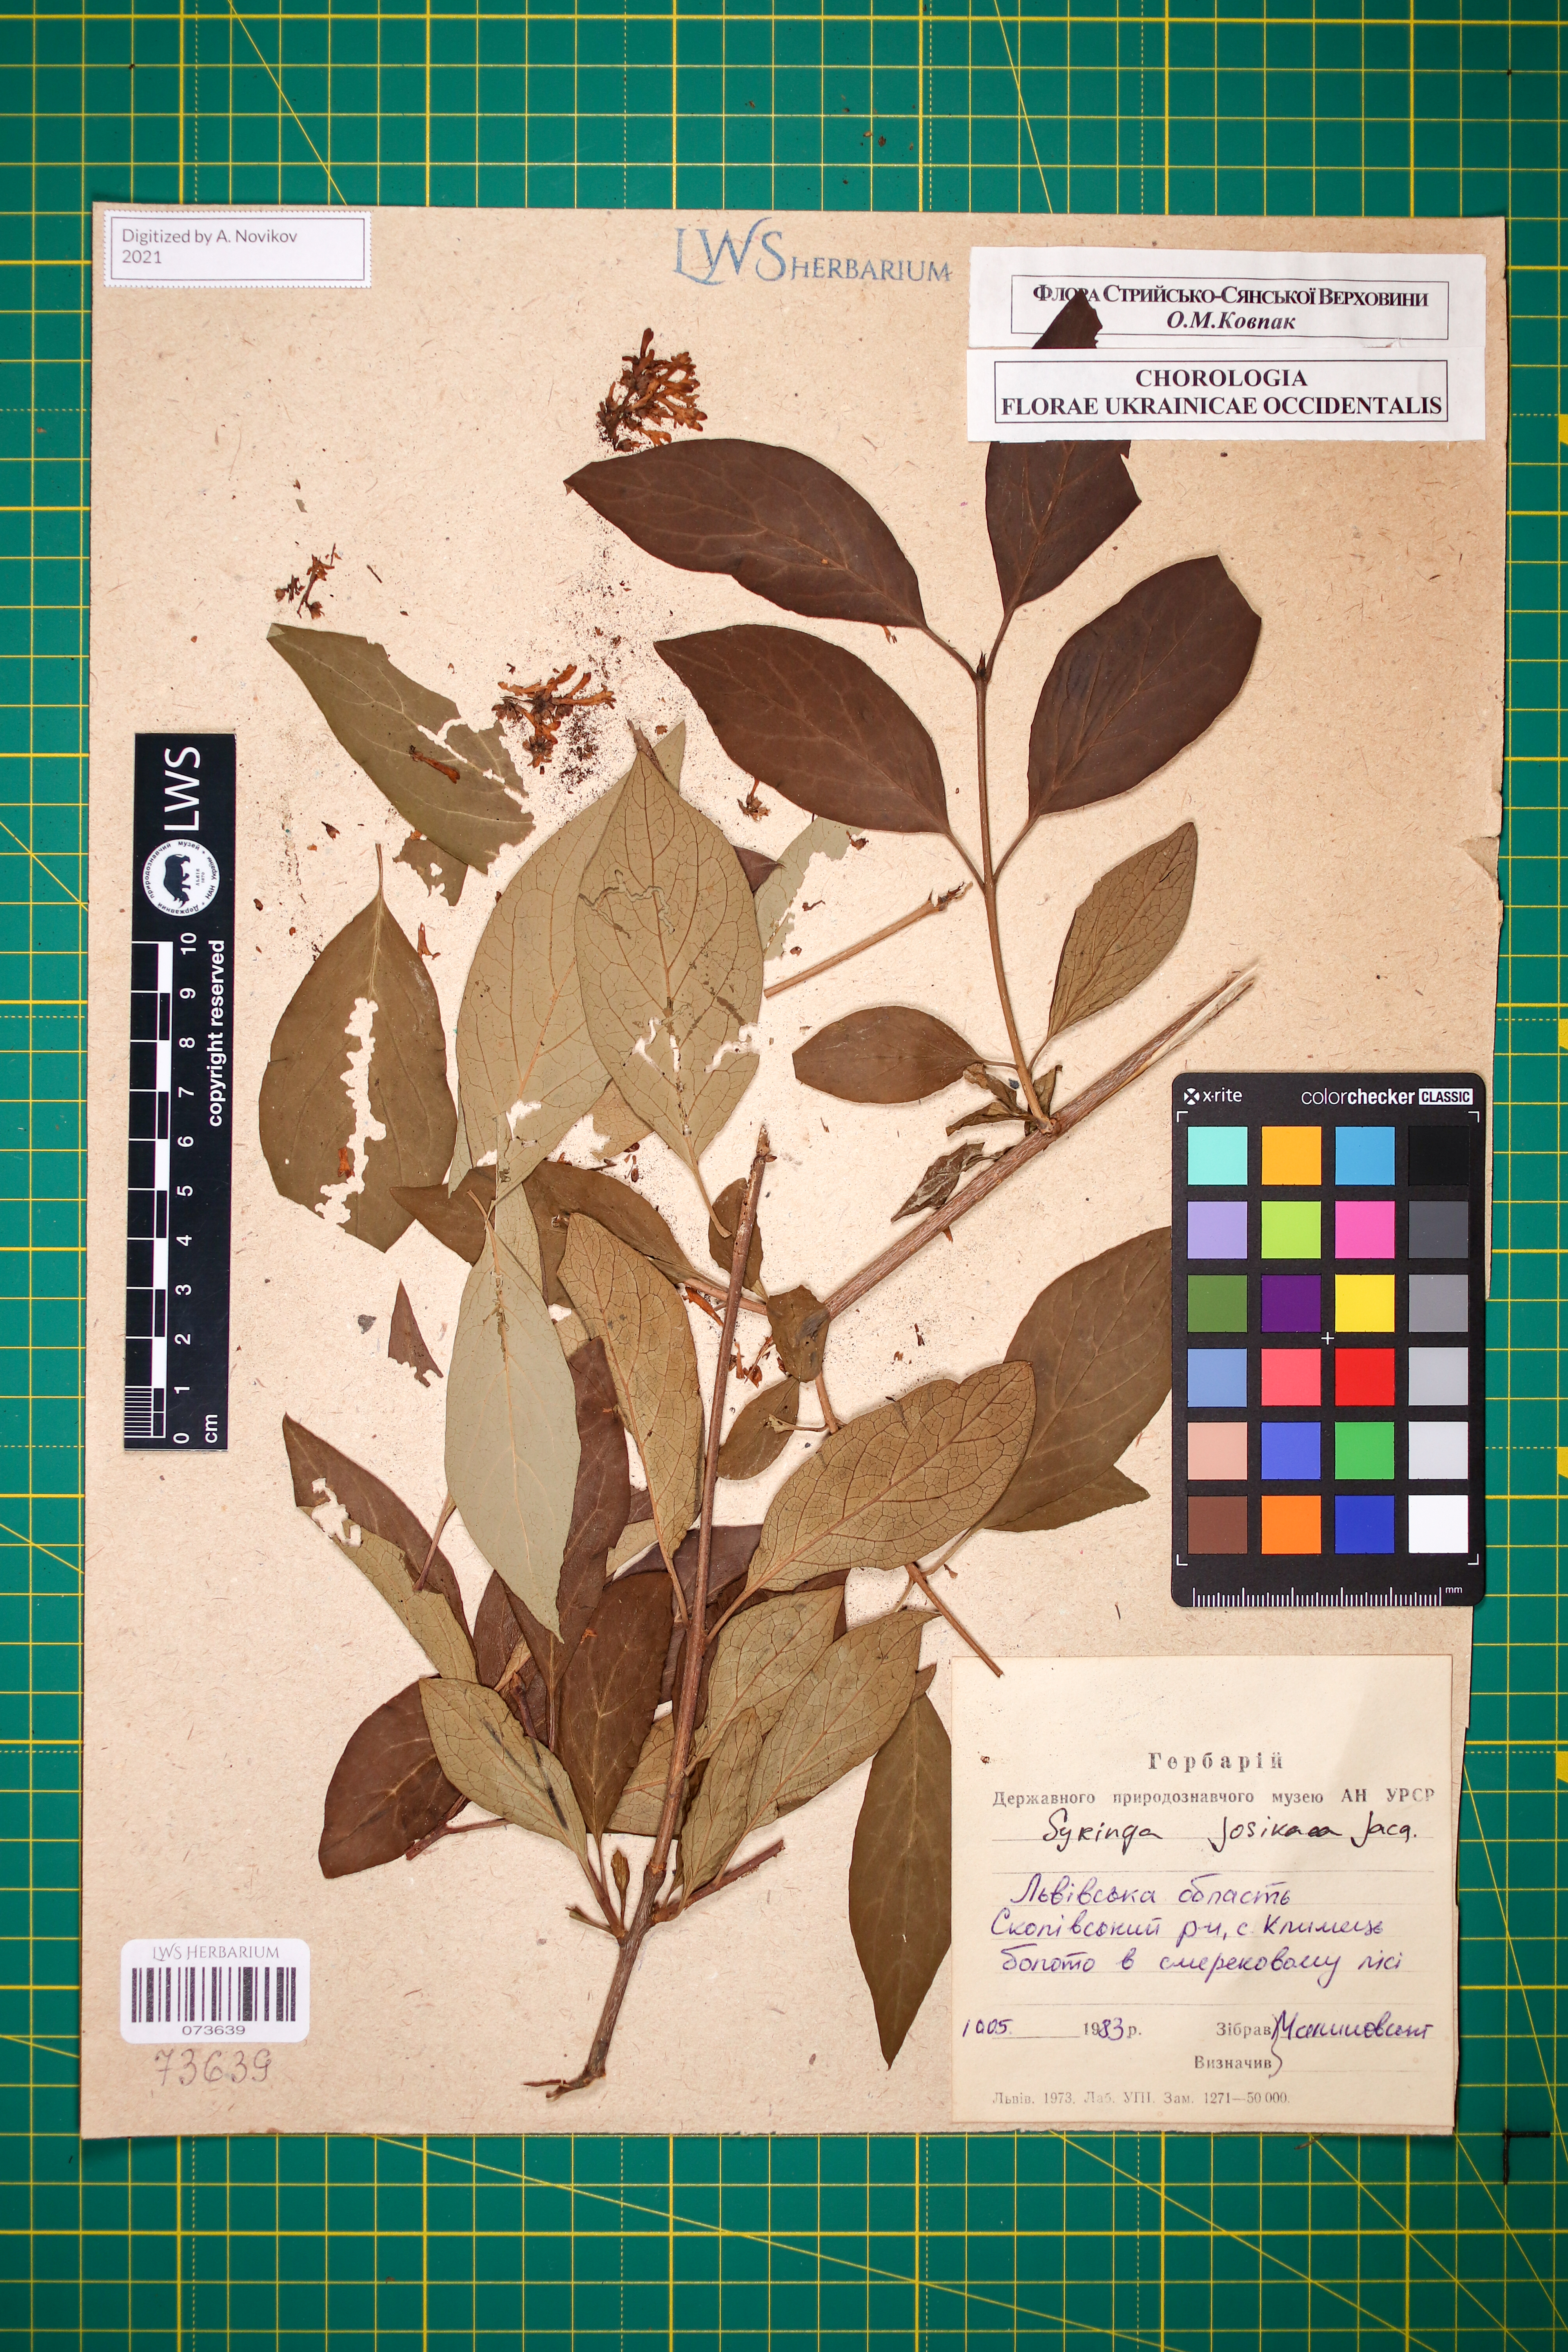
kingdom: Plantae
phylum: Tracheophyta
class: Magnoliopsida
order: Lamiales
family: Oleaceae
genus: Syringa
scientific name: Syringa josikaea
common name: Hungarian lilac
